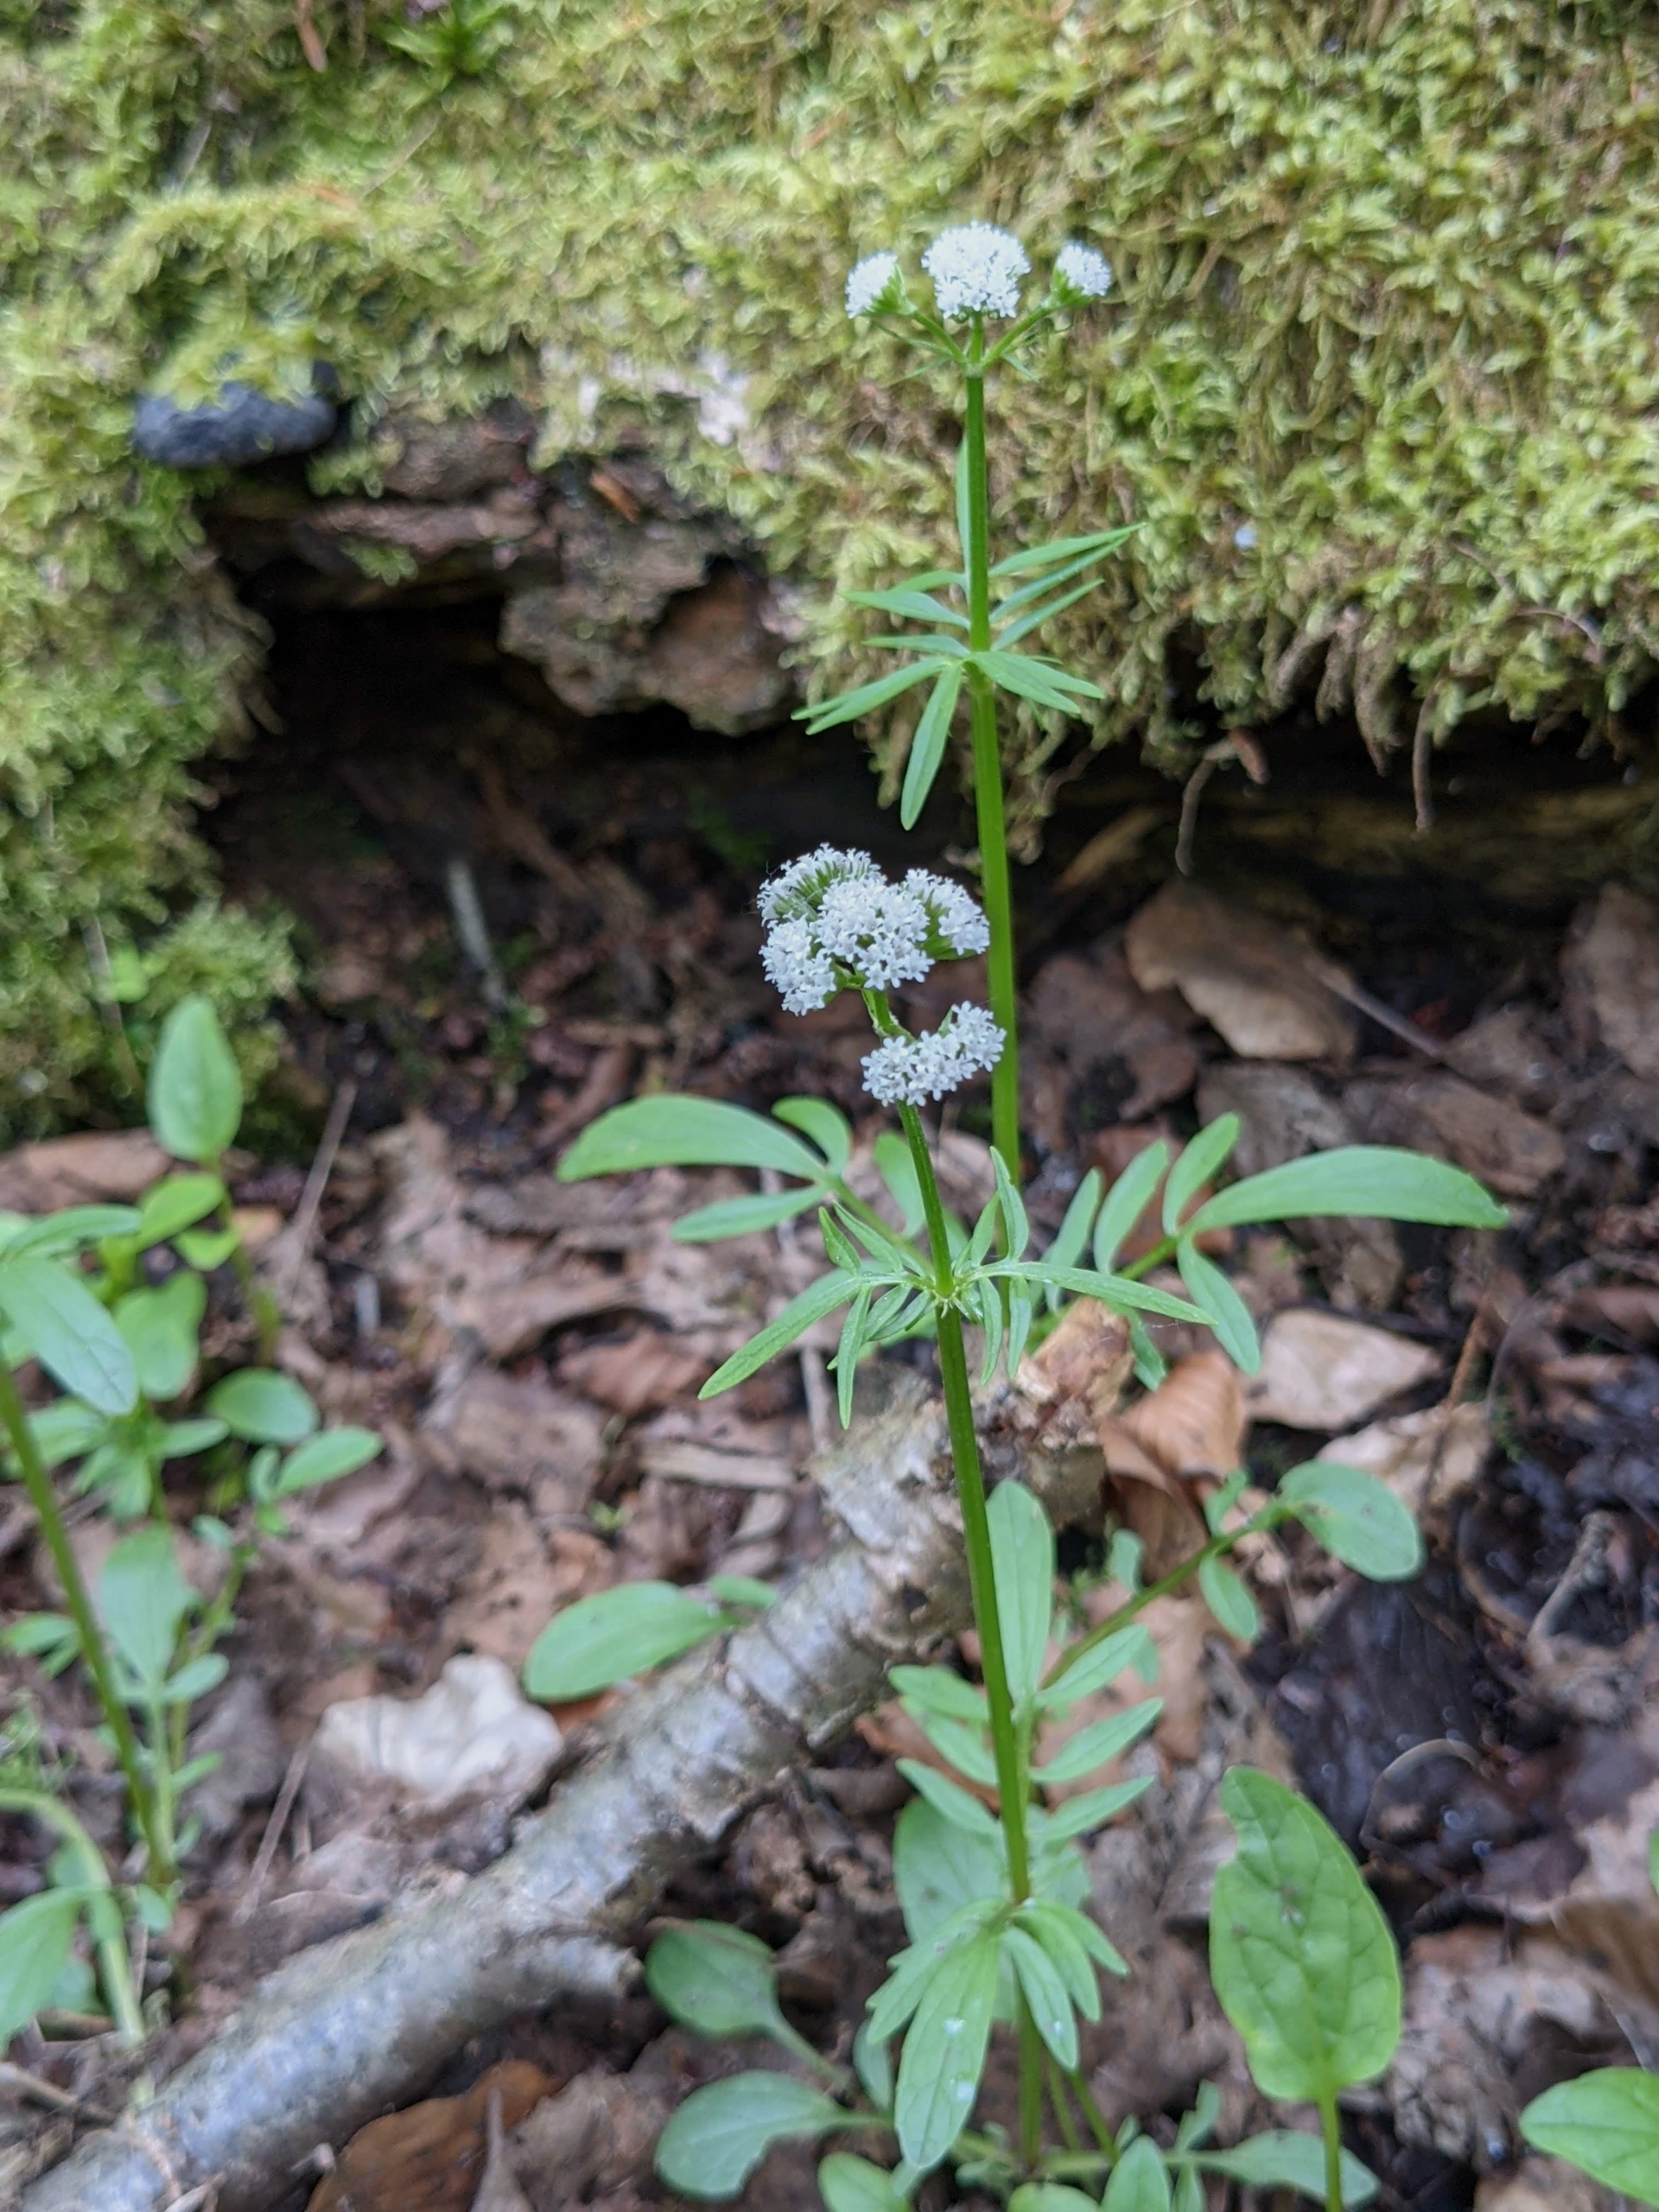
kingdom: Plantae
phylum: Tracheophyta
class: Magnoliopsida
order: Dipsacales
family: Caprifoliaceae
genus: Valeriana
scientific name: Valeriana dioica
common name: Tvebo baldrian
